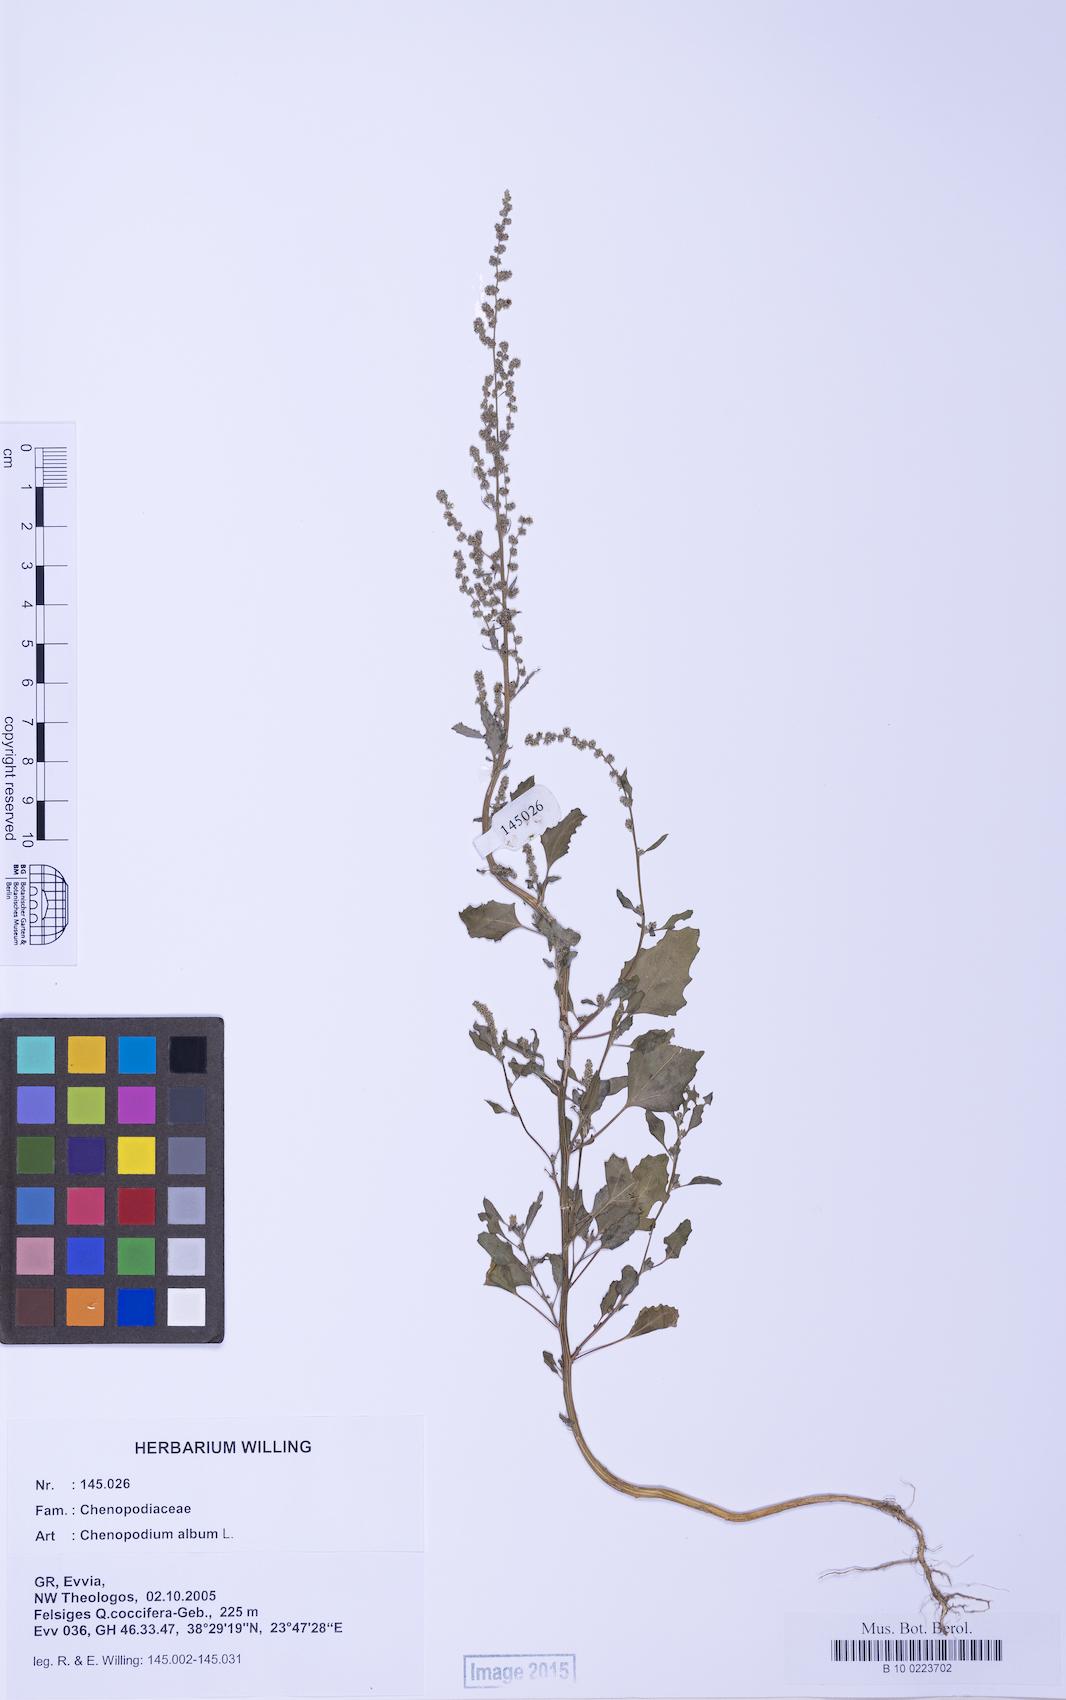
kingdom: Plantae
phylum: Tracheophyta
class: Magnoliopsida
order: Caryophyllales
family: Amaranthaceae
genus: Chenopodium
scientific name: Chenopodium album
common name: Fat-hen
